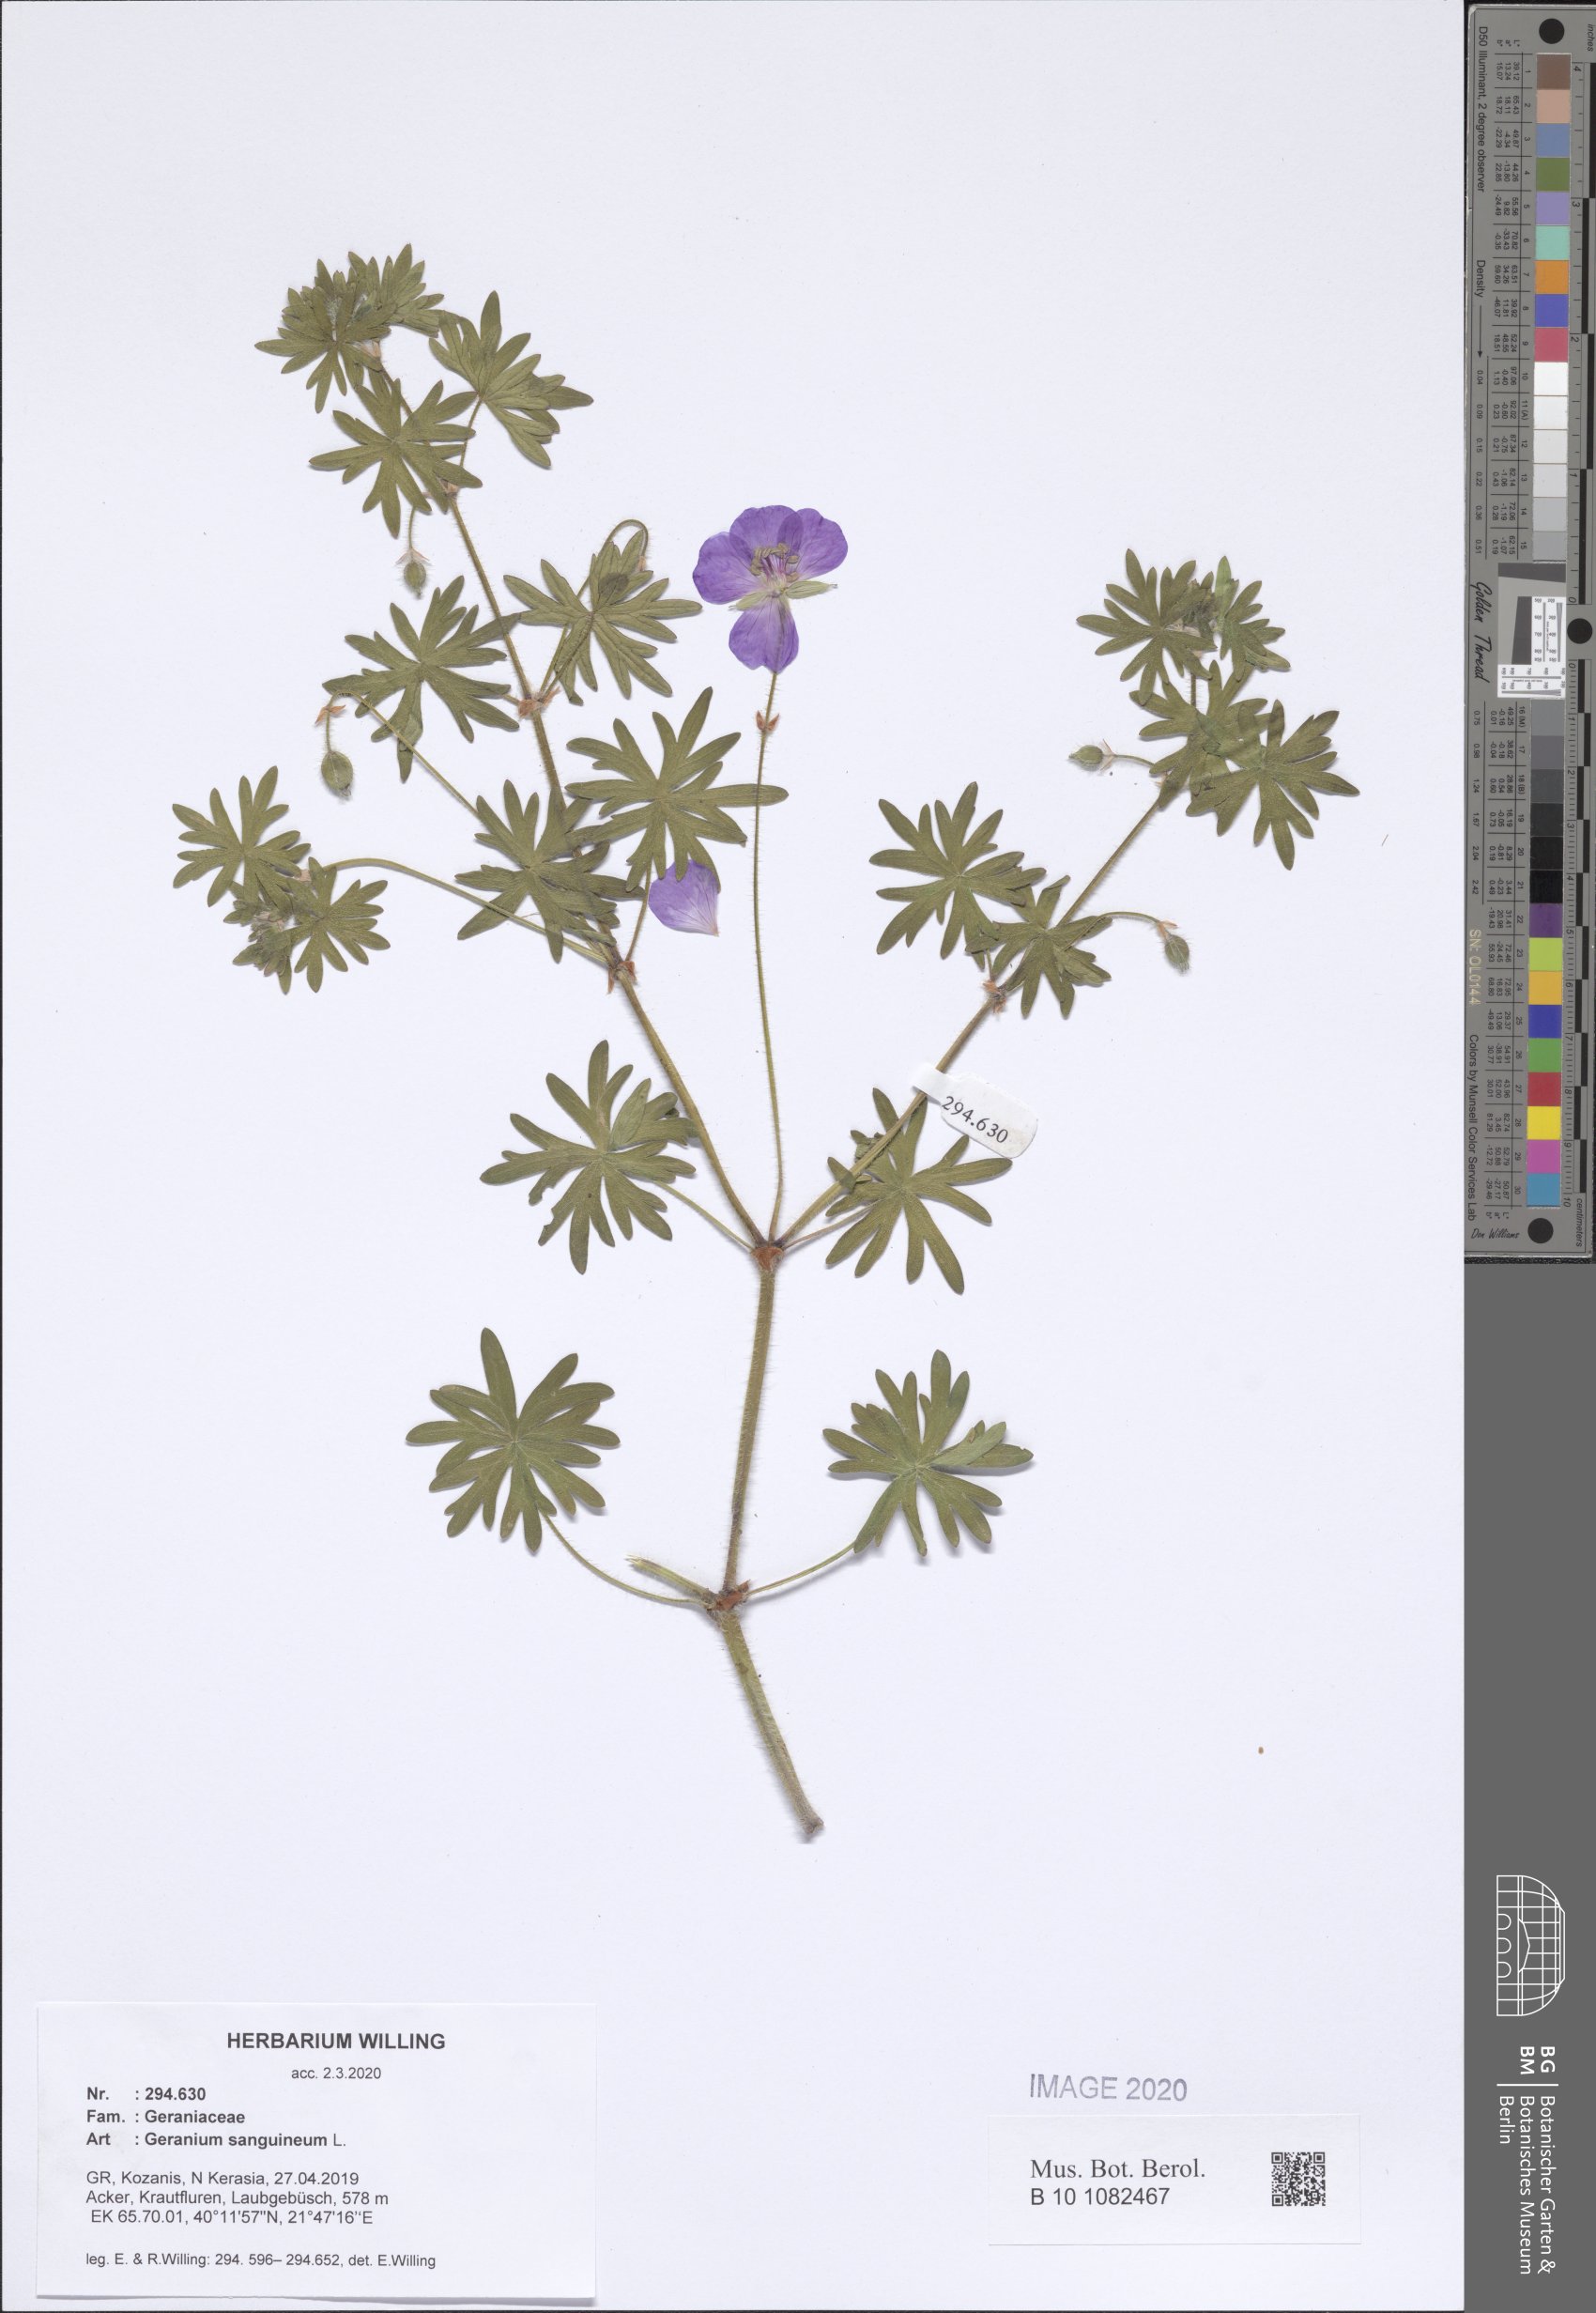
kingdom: Plantae
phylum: Tracheophyta
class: Magnoliopsida
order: Geraniales
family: Geraniaceae
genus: Geranium
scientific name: Geranium sanguineum
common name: Bloody crane's-bill
